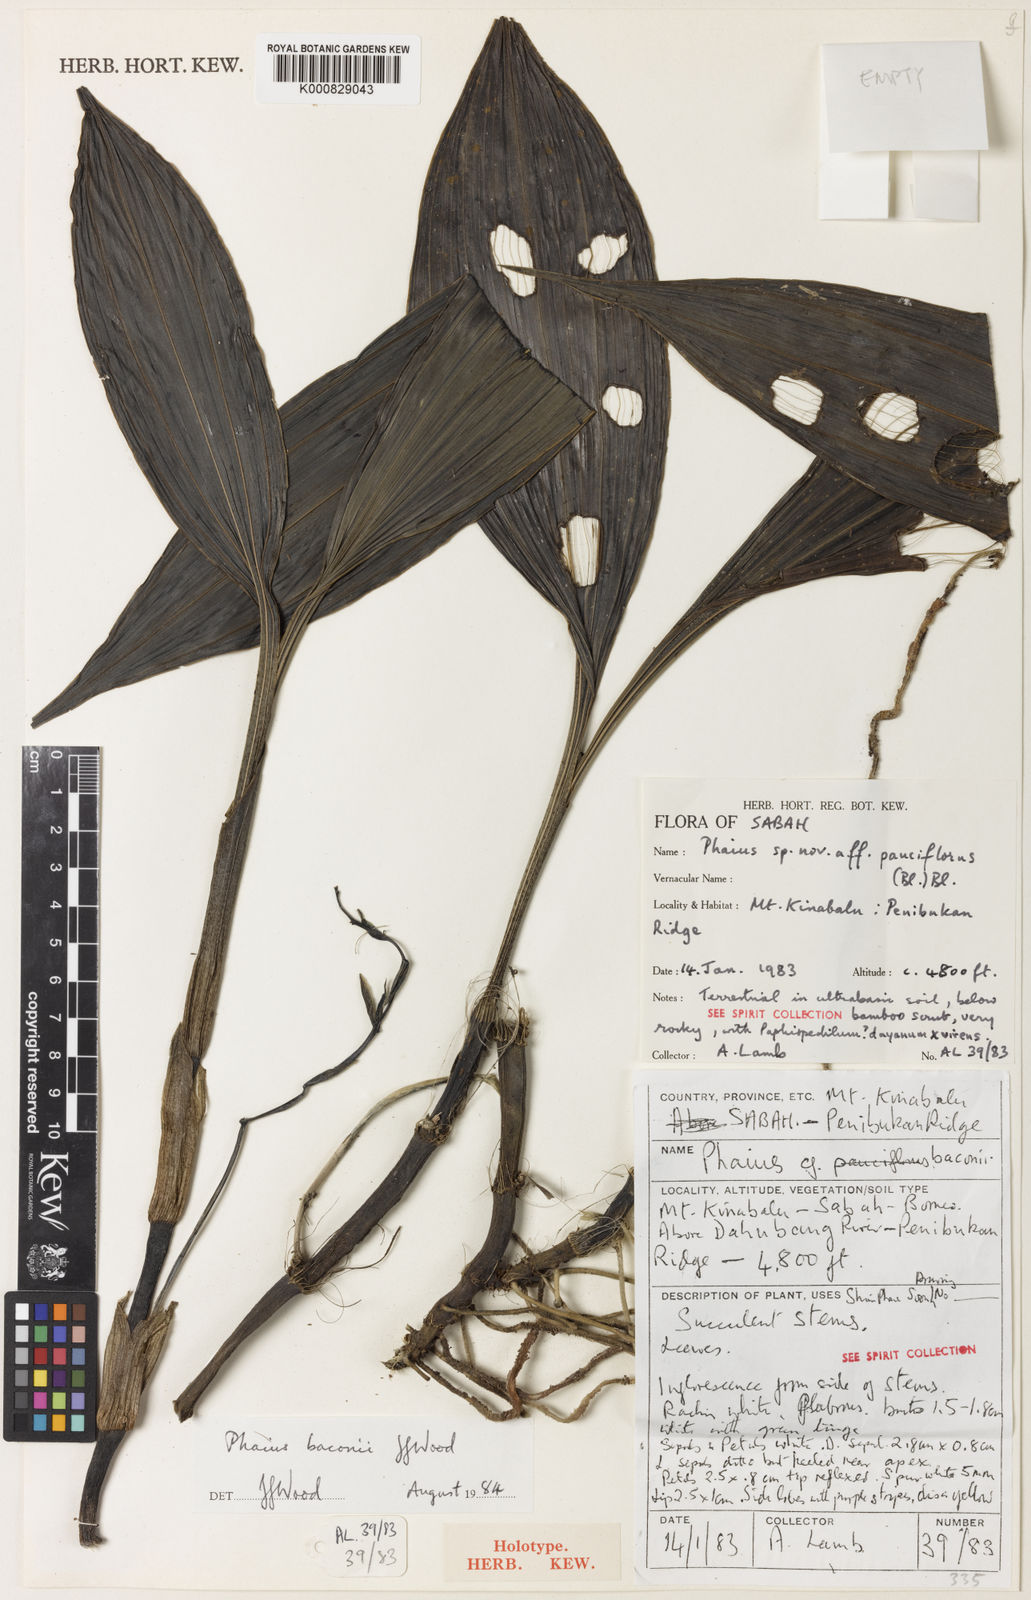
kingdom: Plantae
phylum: Tracheophyta
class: Liliopsida
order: Asparagales
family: Orchidaceae
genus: Calanthe
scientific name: Calanthe baconii
